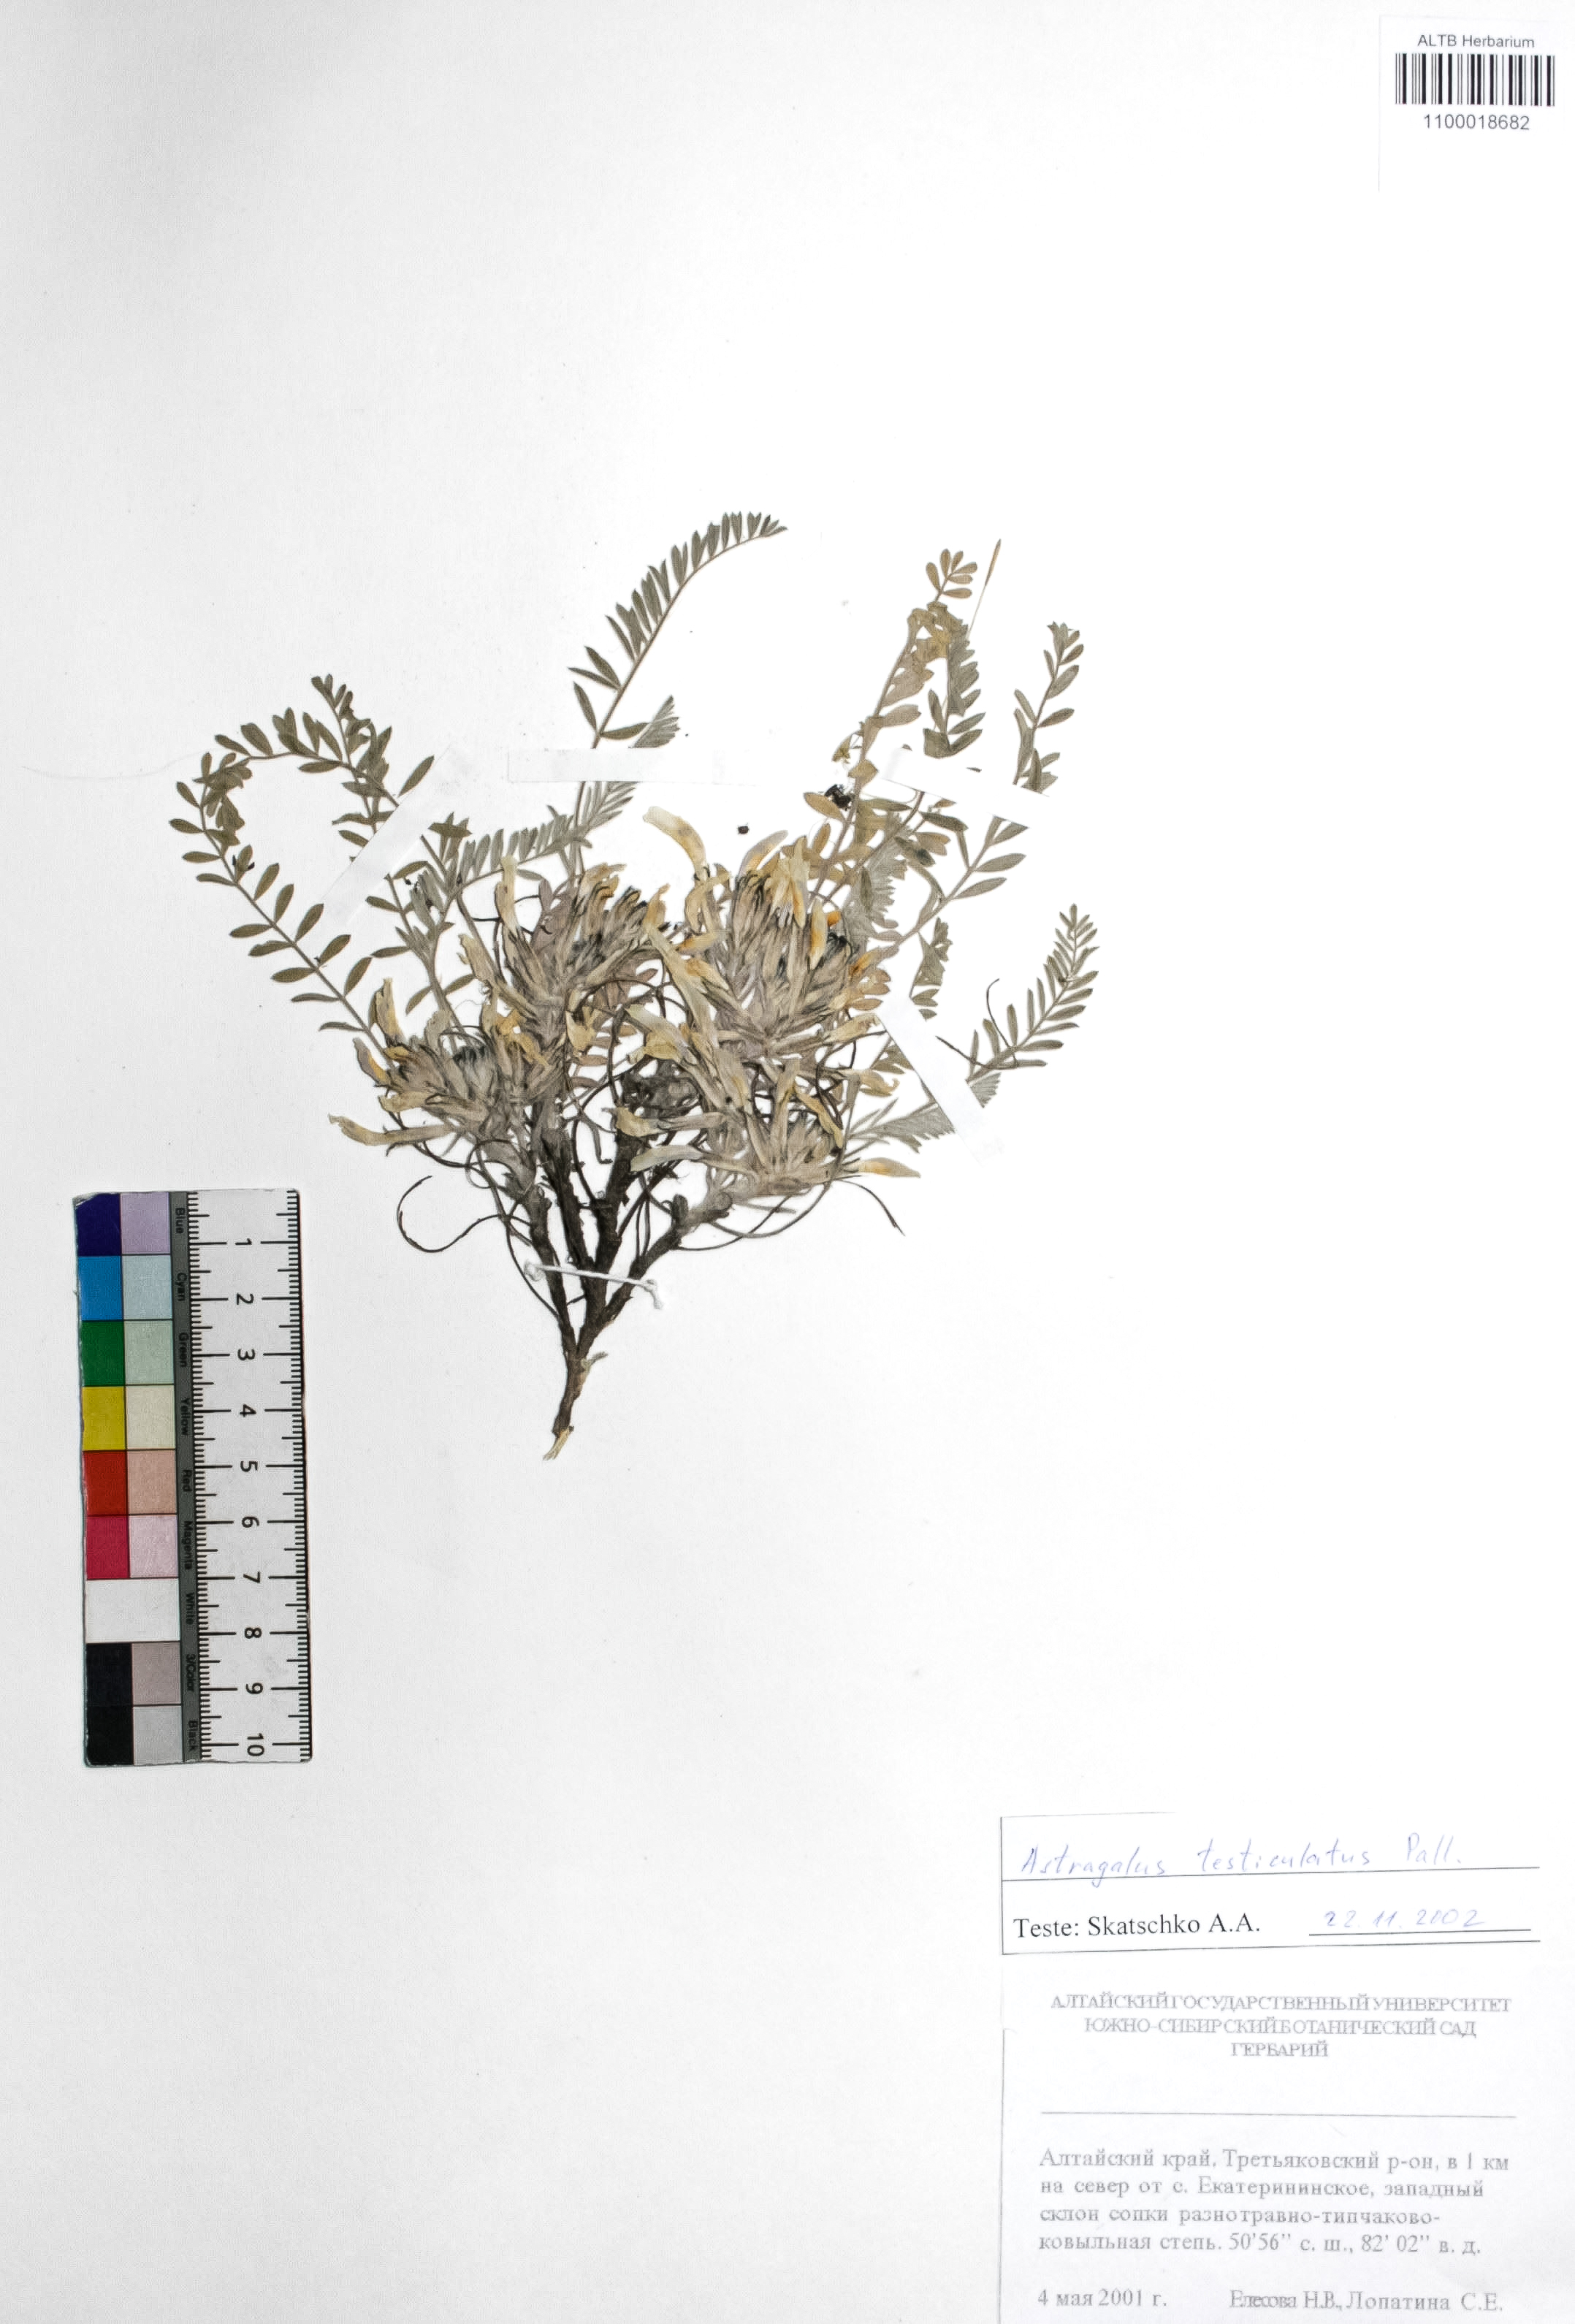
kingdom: Plantae
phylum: Tracheophyta
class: Magnoliopsida
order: Fabales
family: Fabaceae
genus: Astragalus
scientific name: Astragalus testiculatus
